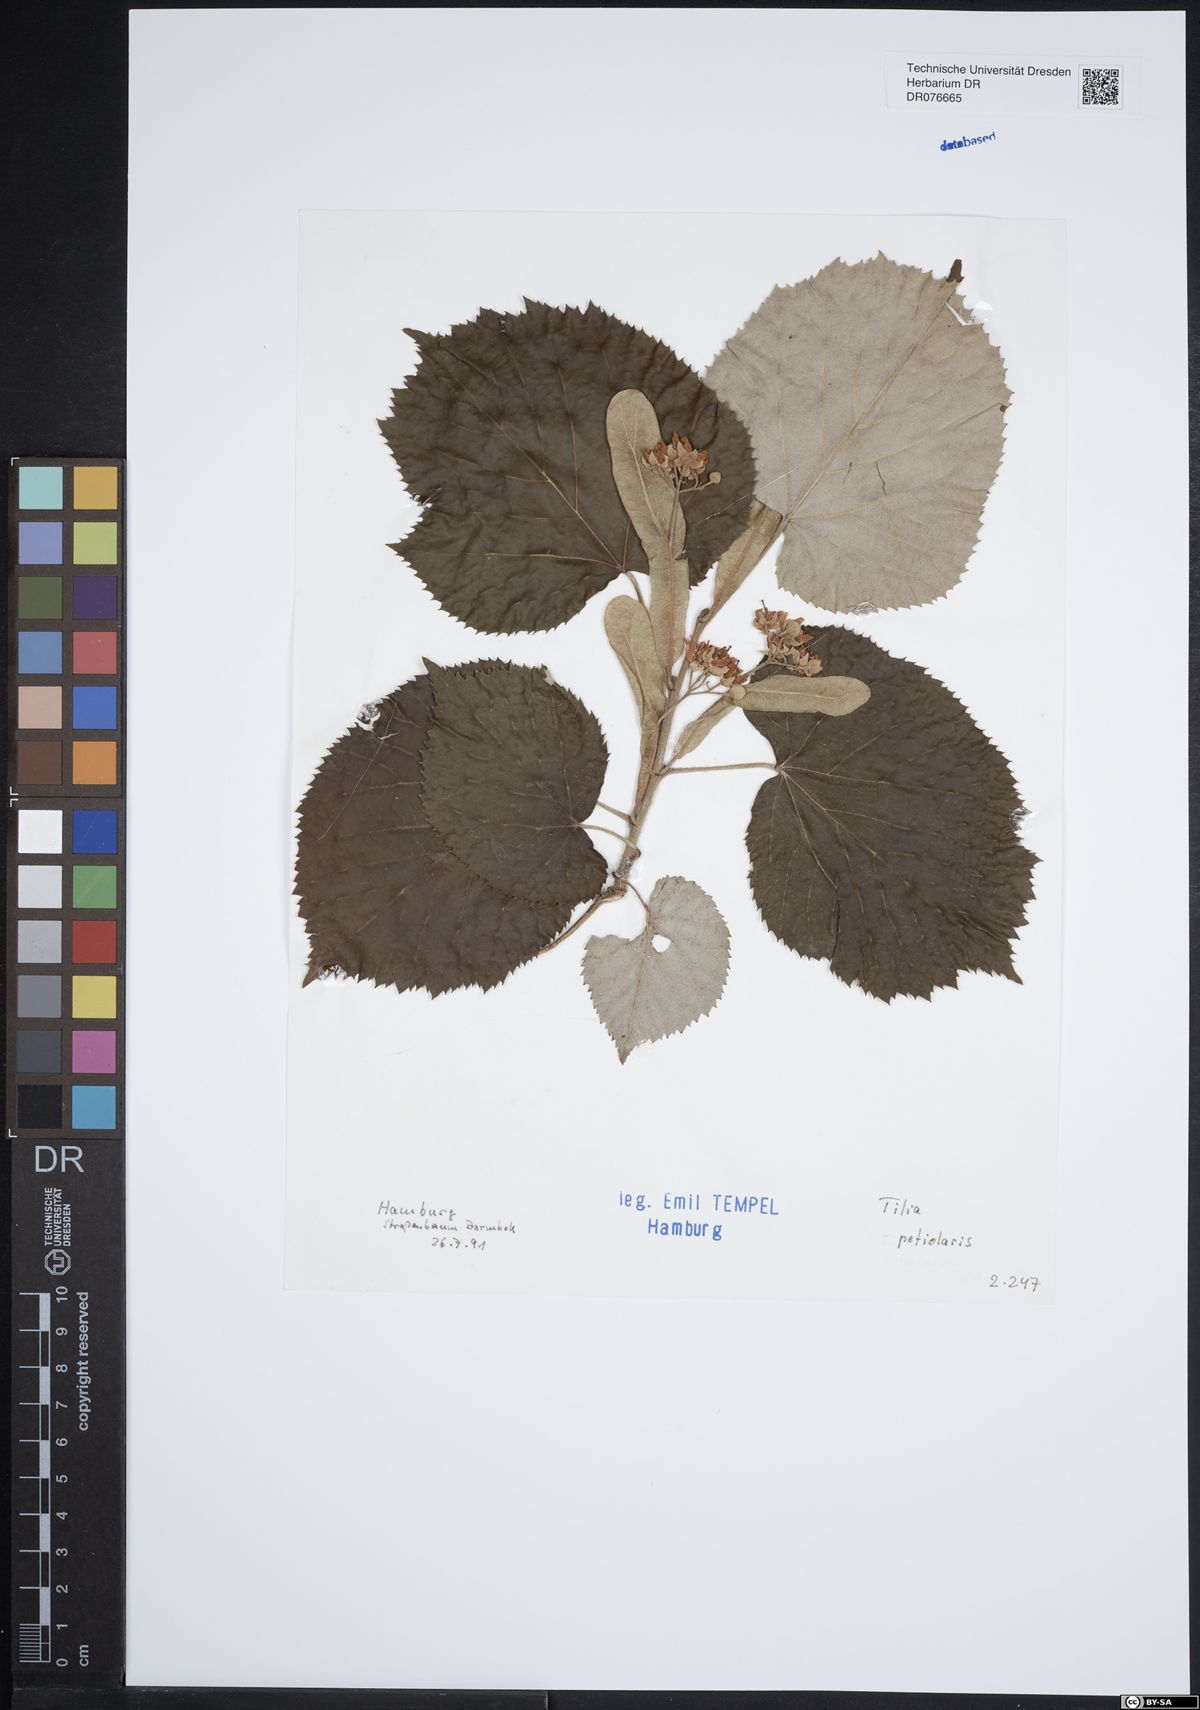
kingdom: Plantae
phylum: Tracheophyta
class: Magnoliopsida
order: Malvales
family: Malvaceae
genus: Tilia
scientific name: Tilia tomentosa
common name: Silver lime
